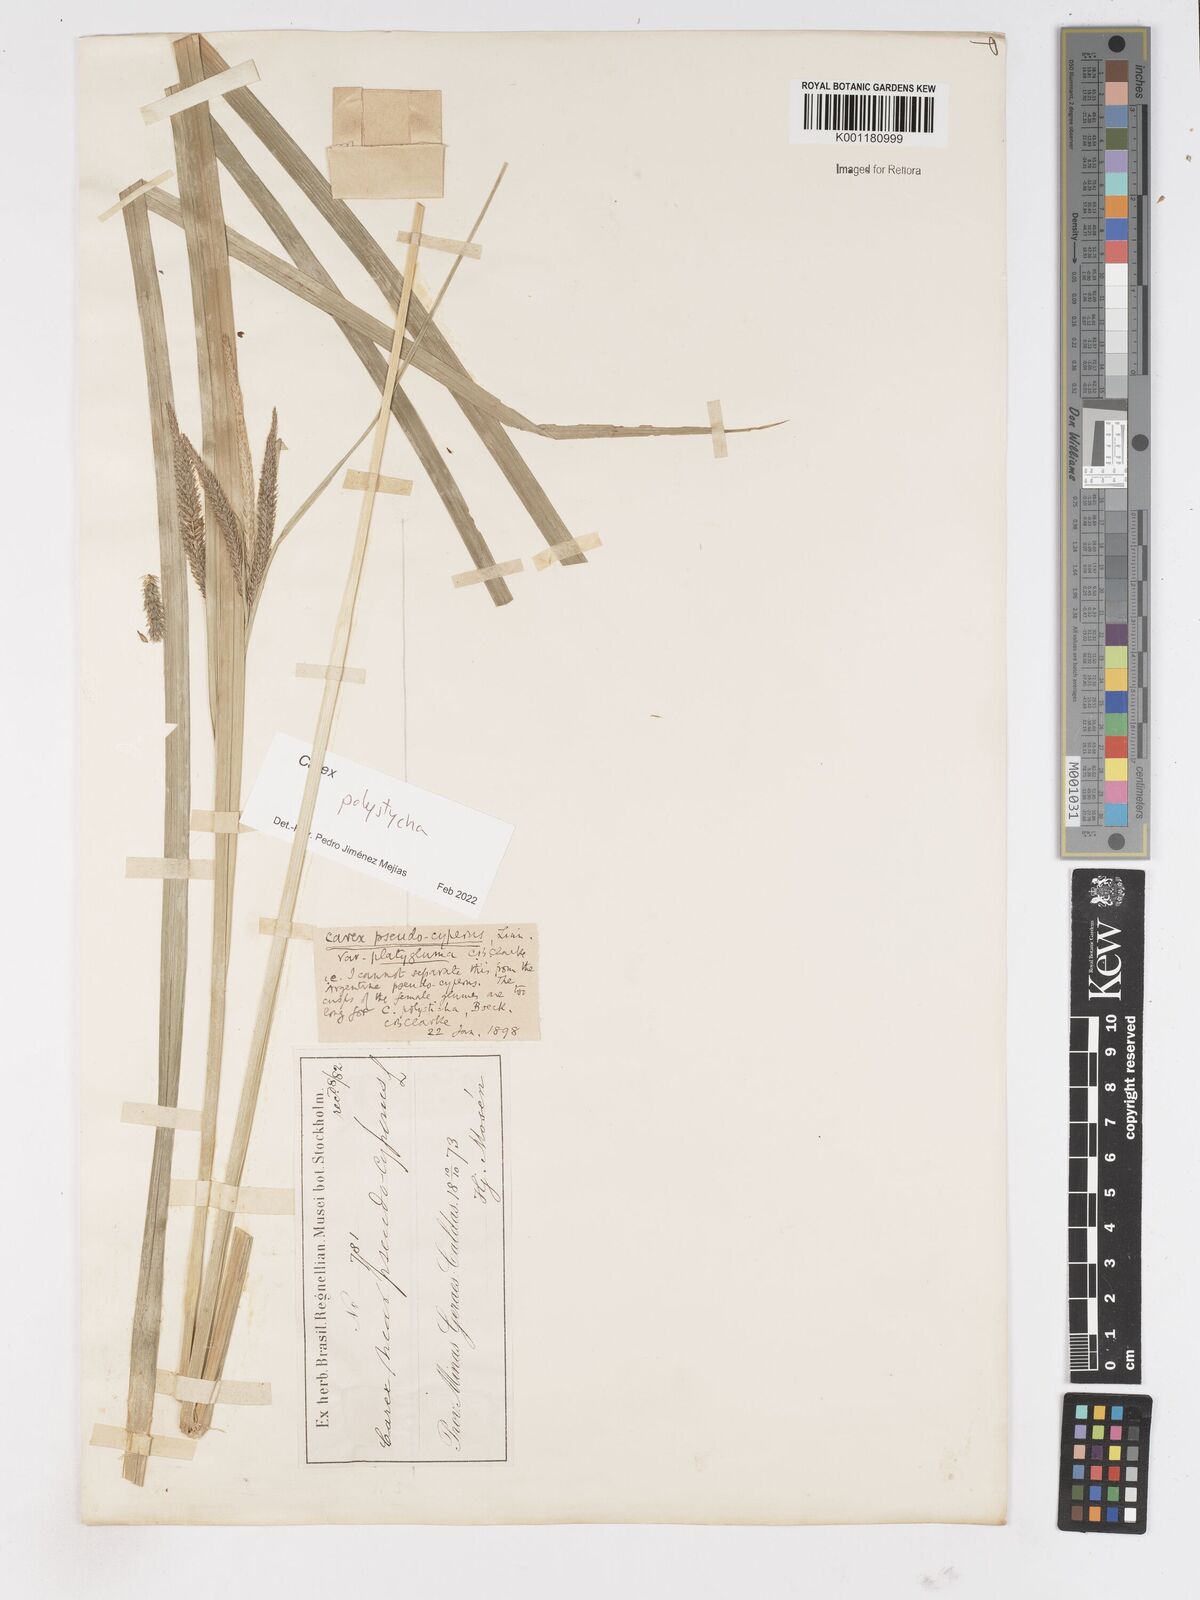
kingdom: Plantae
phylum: Tracheophyta
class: Liliopsida
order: Poales
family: Cyperaceae
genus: Carex
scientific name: Carex polysticha
